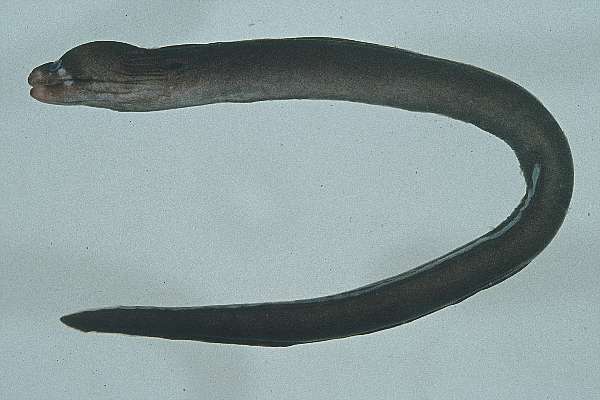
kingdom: Animalia
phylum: Chordata
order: Anguilliformes
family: Muraenidae
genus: Uropterygius
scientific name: Uropterygius xanthopterus
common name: Freckleface reef-eel
